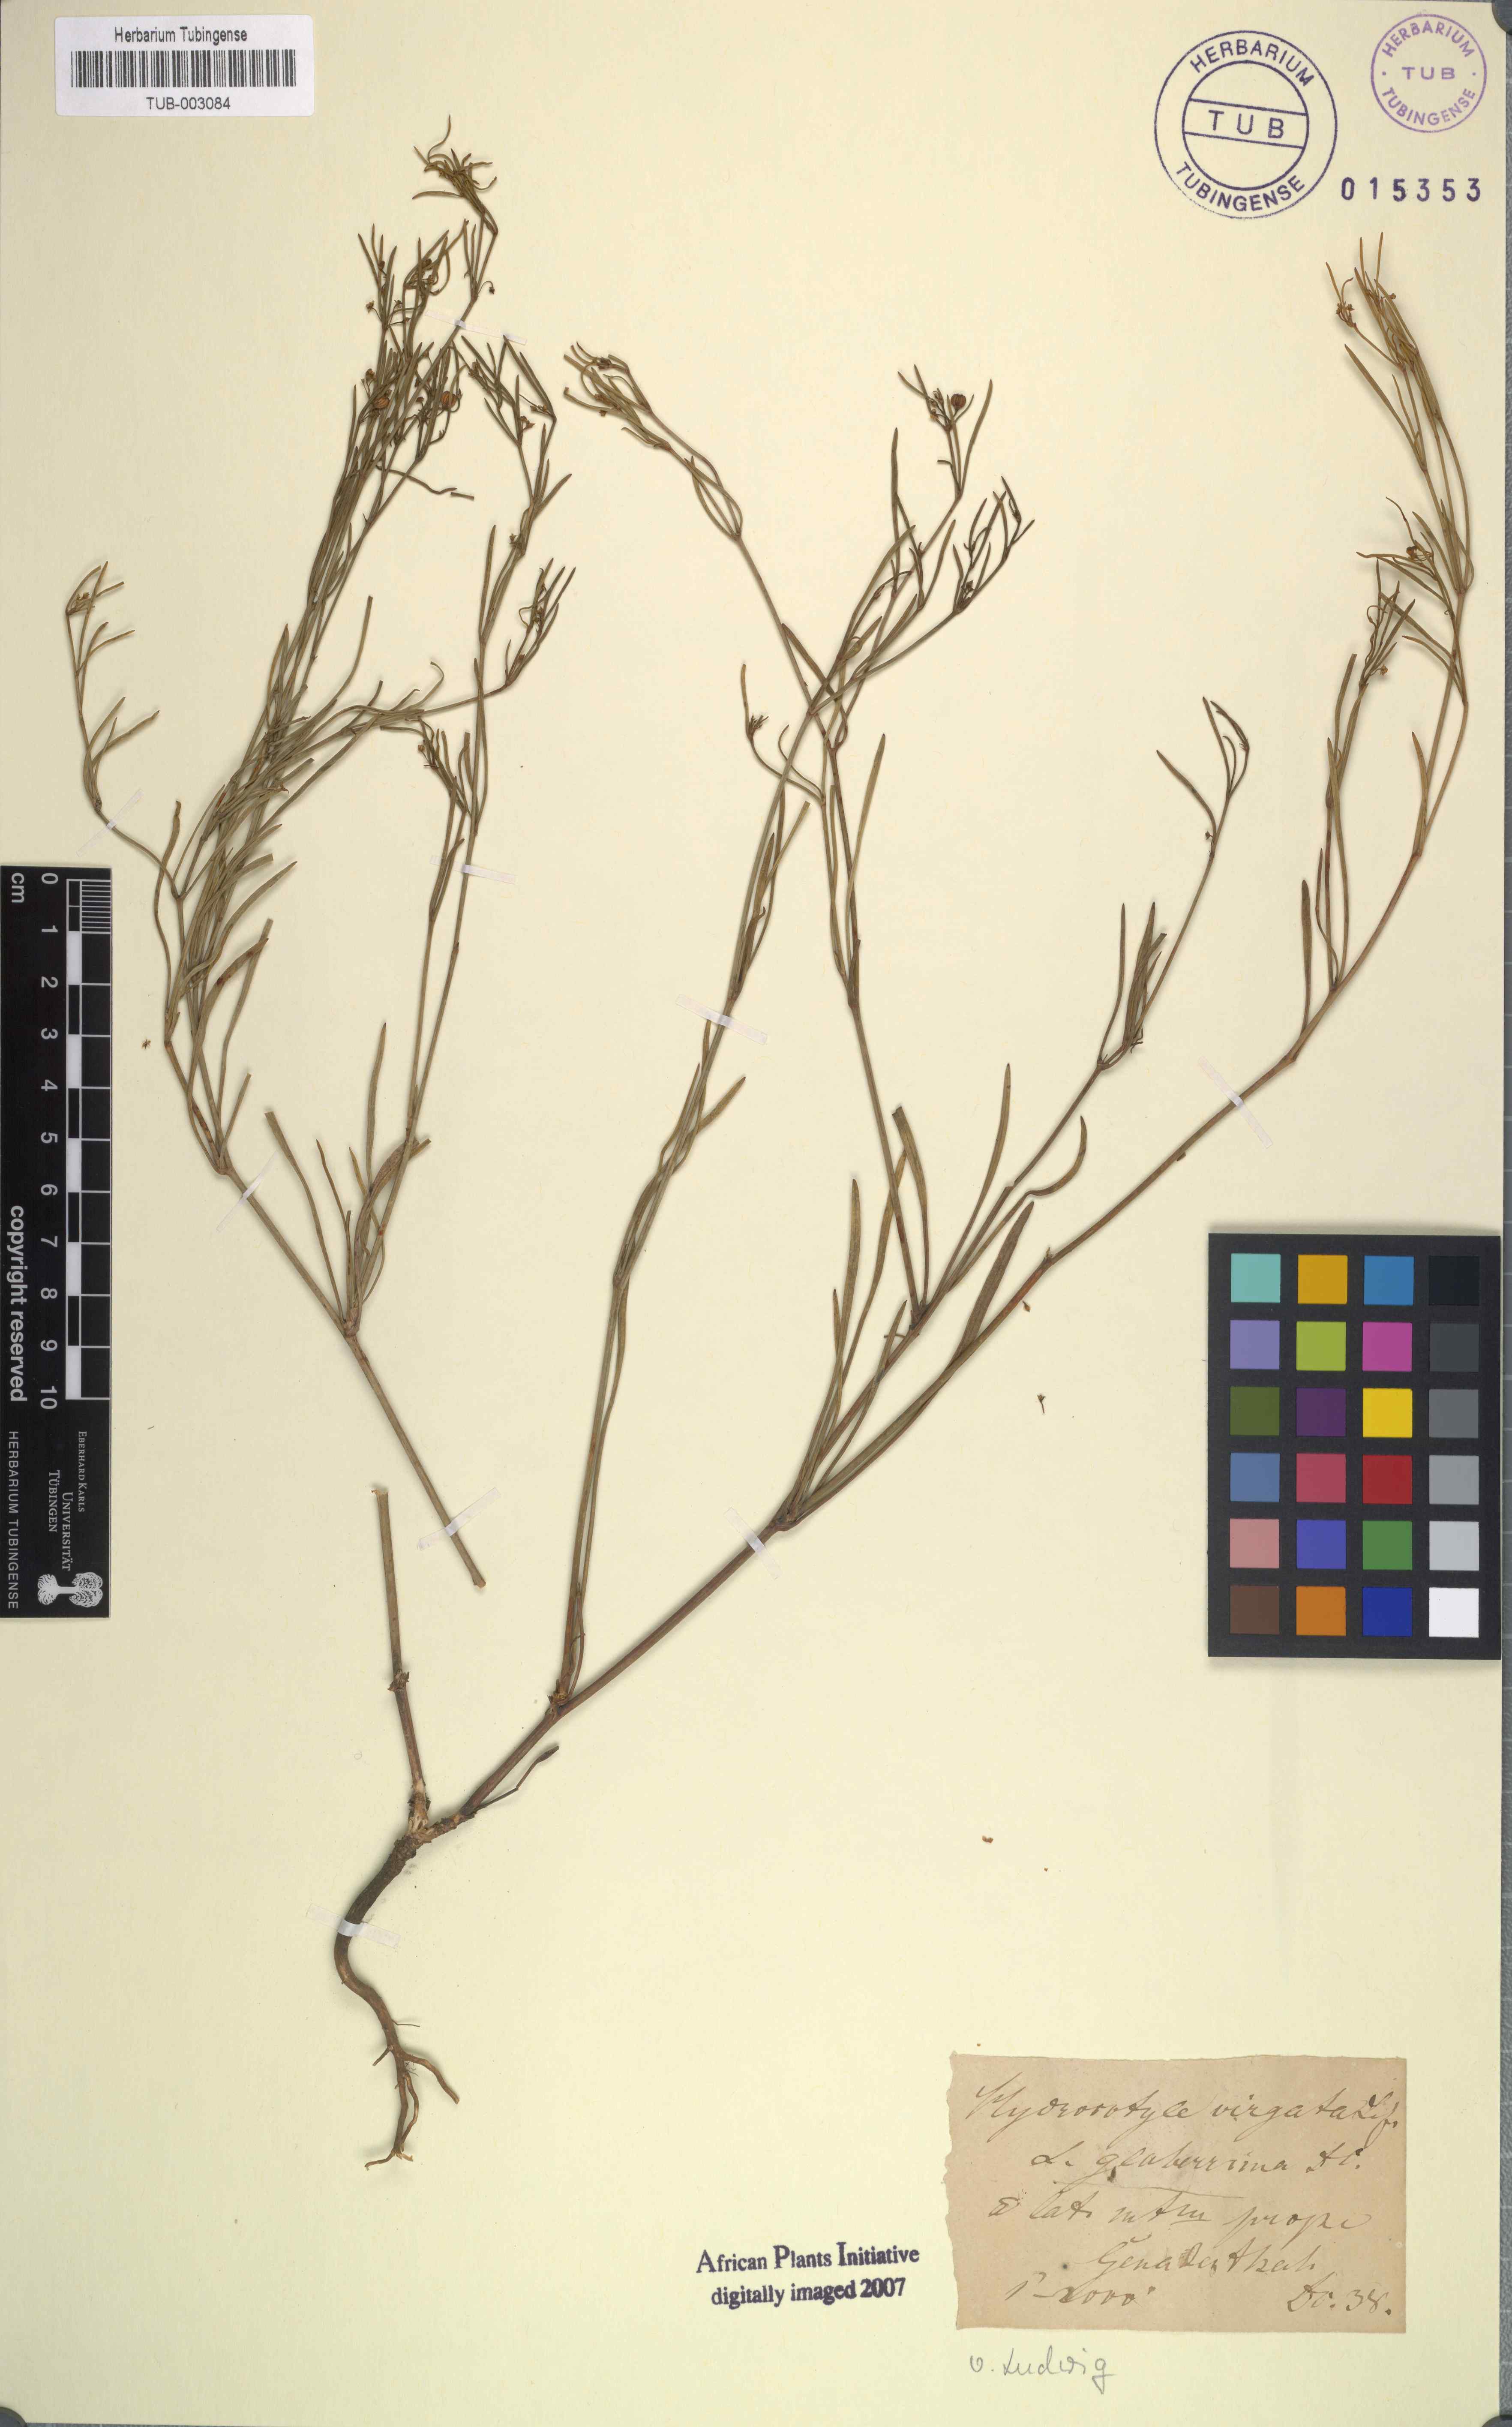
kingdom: Plantae
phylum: Tracheophyta
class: Magnoliopsida
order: Apiales
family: Apiaceae
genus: Centella
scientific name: Centella virgata
